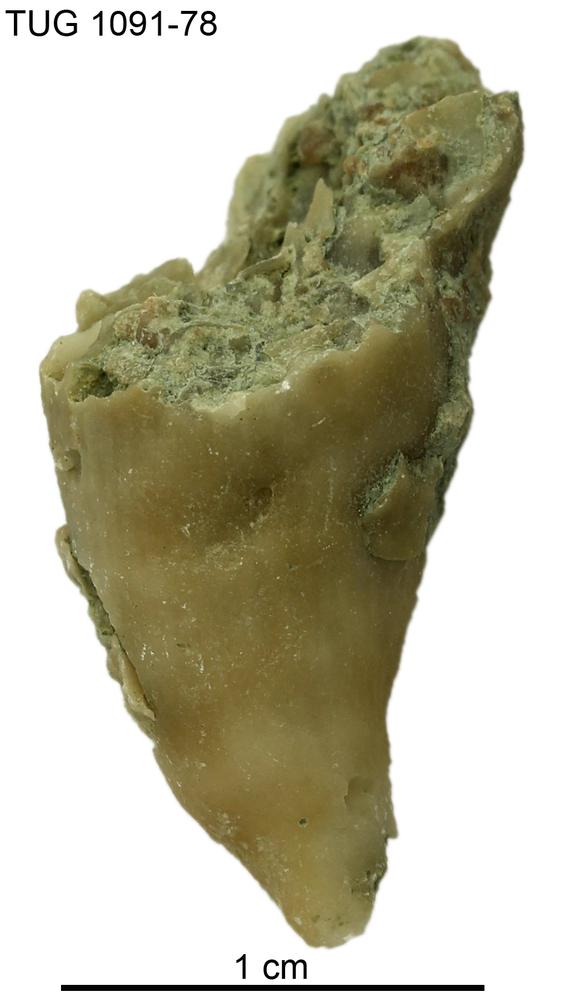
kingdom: Animalia
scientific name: Animalia
